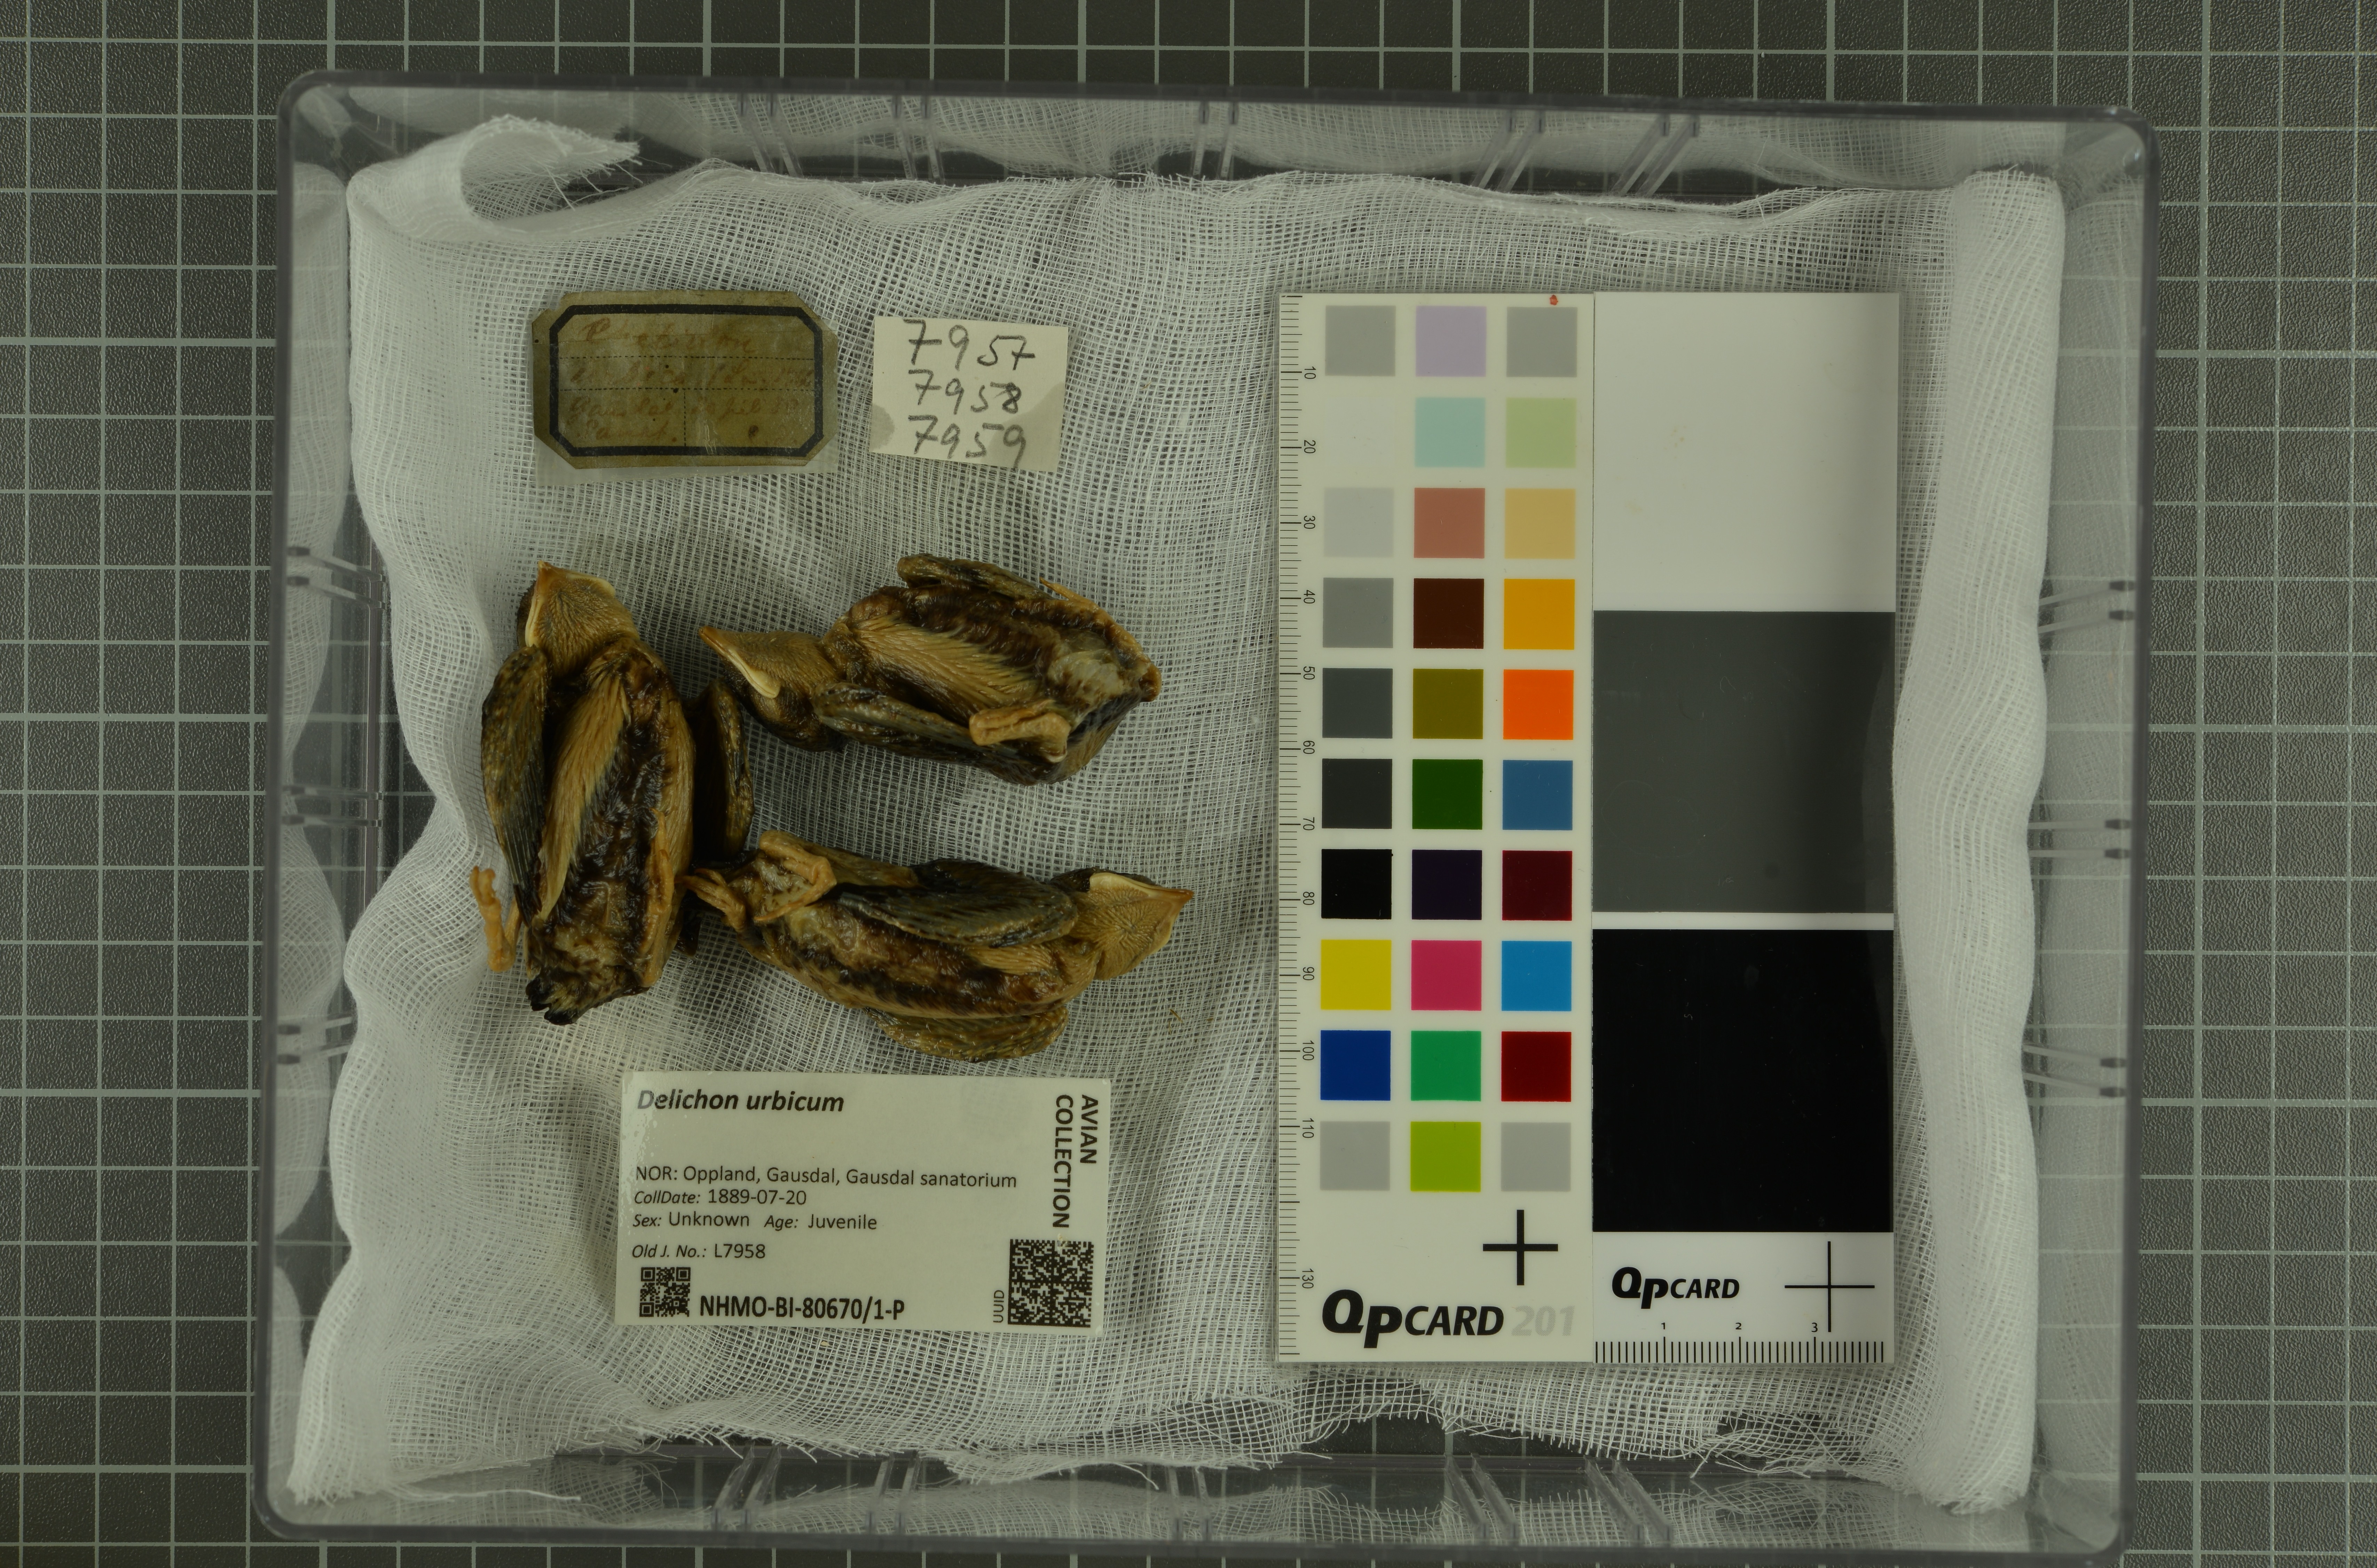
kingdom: Animalia
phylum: Chordata
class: Aves
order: Passeriformes
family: Hirundinidae
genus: Delichon
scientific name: Delichon urbicum
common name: Common house martin
